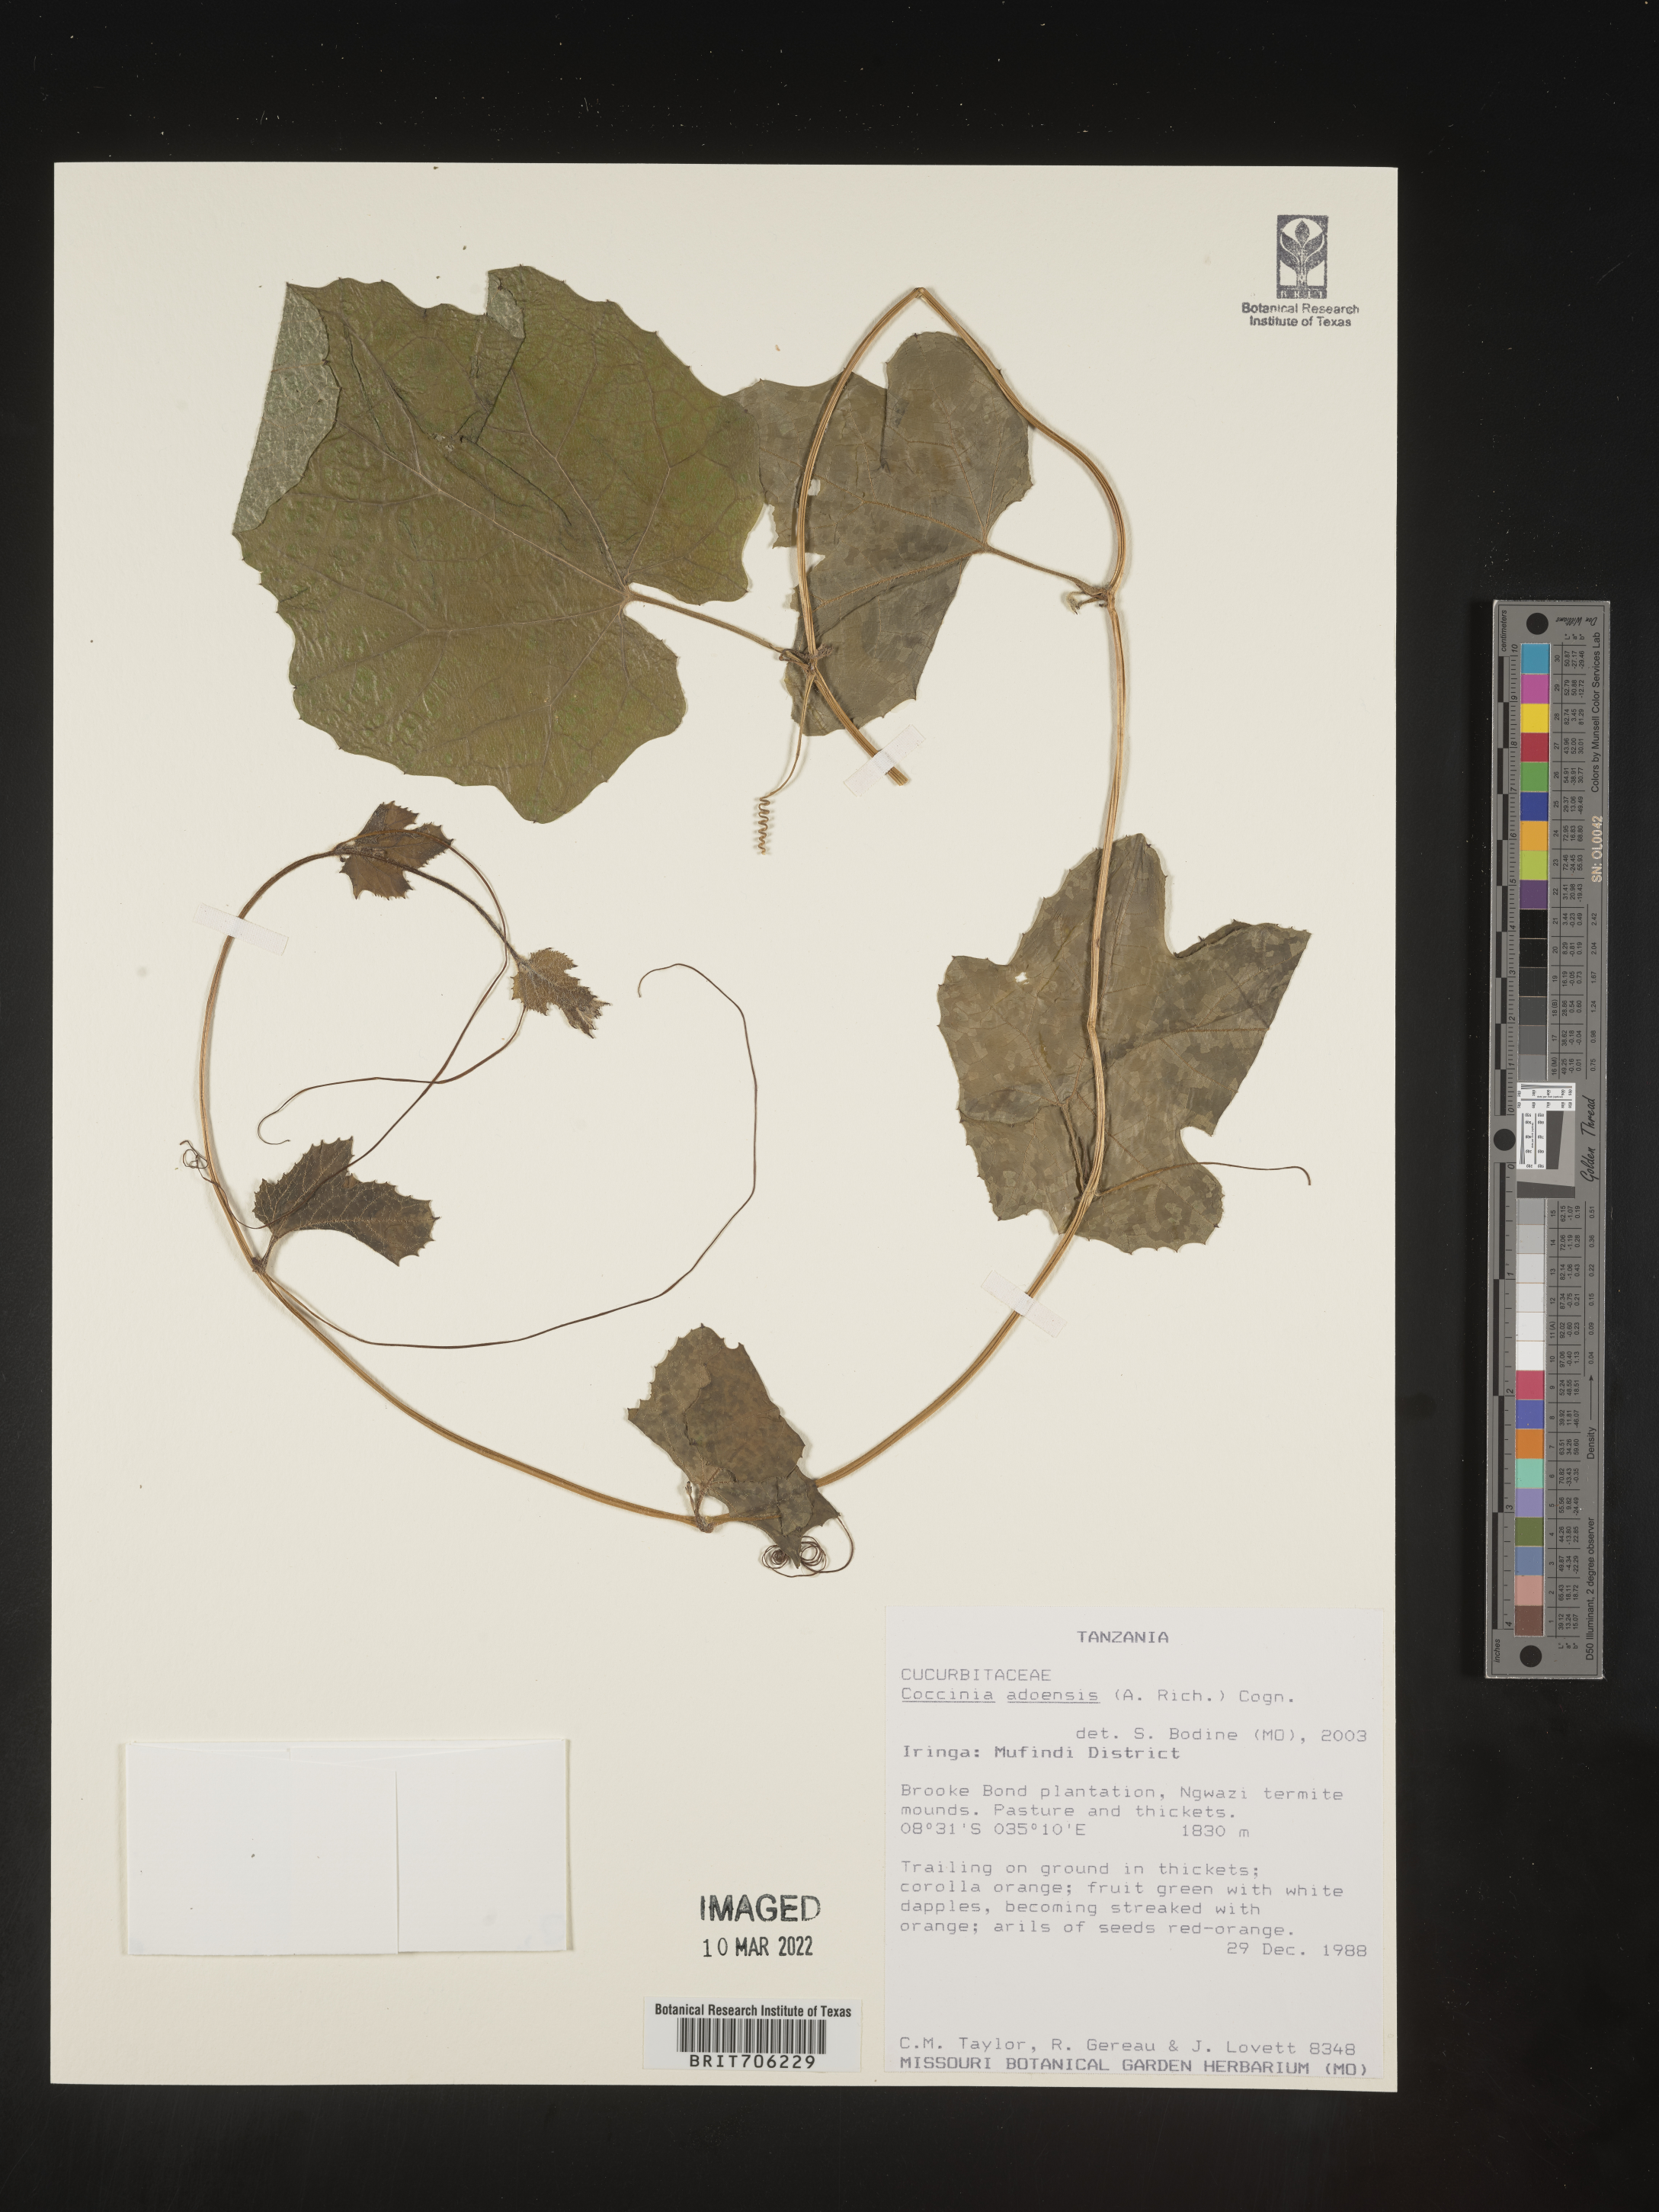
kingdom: Plantae
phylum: Tracheophyta
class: Magnoliopsida
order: Cucurbitales
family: Cucurbitaceae
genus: Coccinia
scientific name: Coccinia
